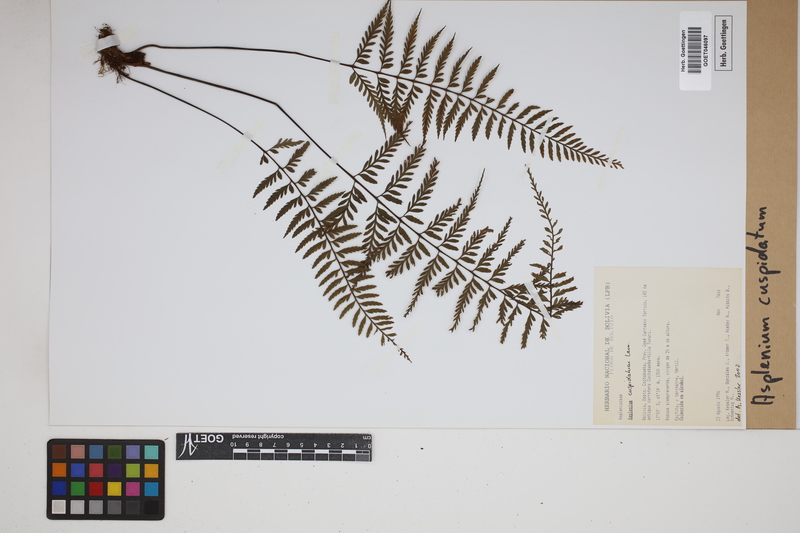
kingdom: Plantae
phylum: Tracheophyta
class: Polypodiopsida
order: Polypodiales
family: Aspleniaceae
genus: Asplenium
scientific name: Asplenium cuspidatum
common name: Eared spleenwort
